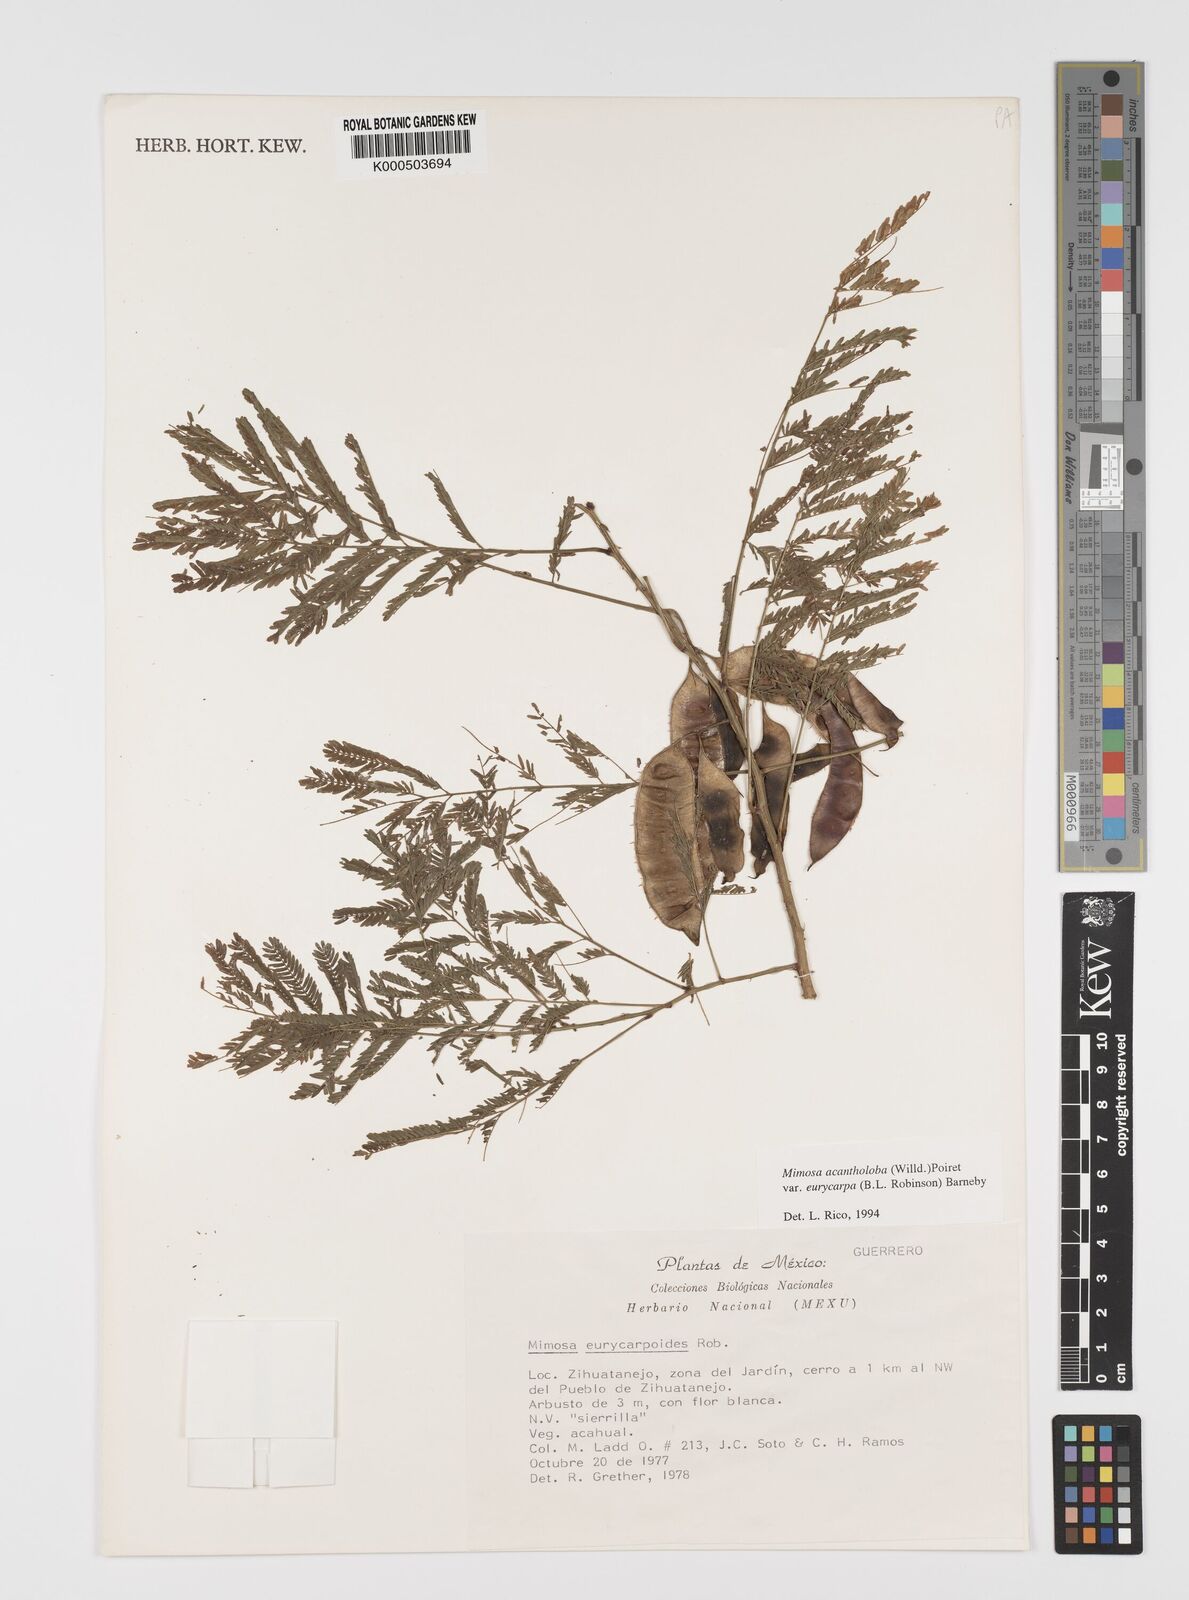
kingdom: Plantae
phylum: Tracheophyta
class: Magnoliopsida
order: Fabales
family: Fabaceae
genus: Mimosa
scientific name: Mimosa acantholoba
